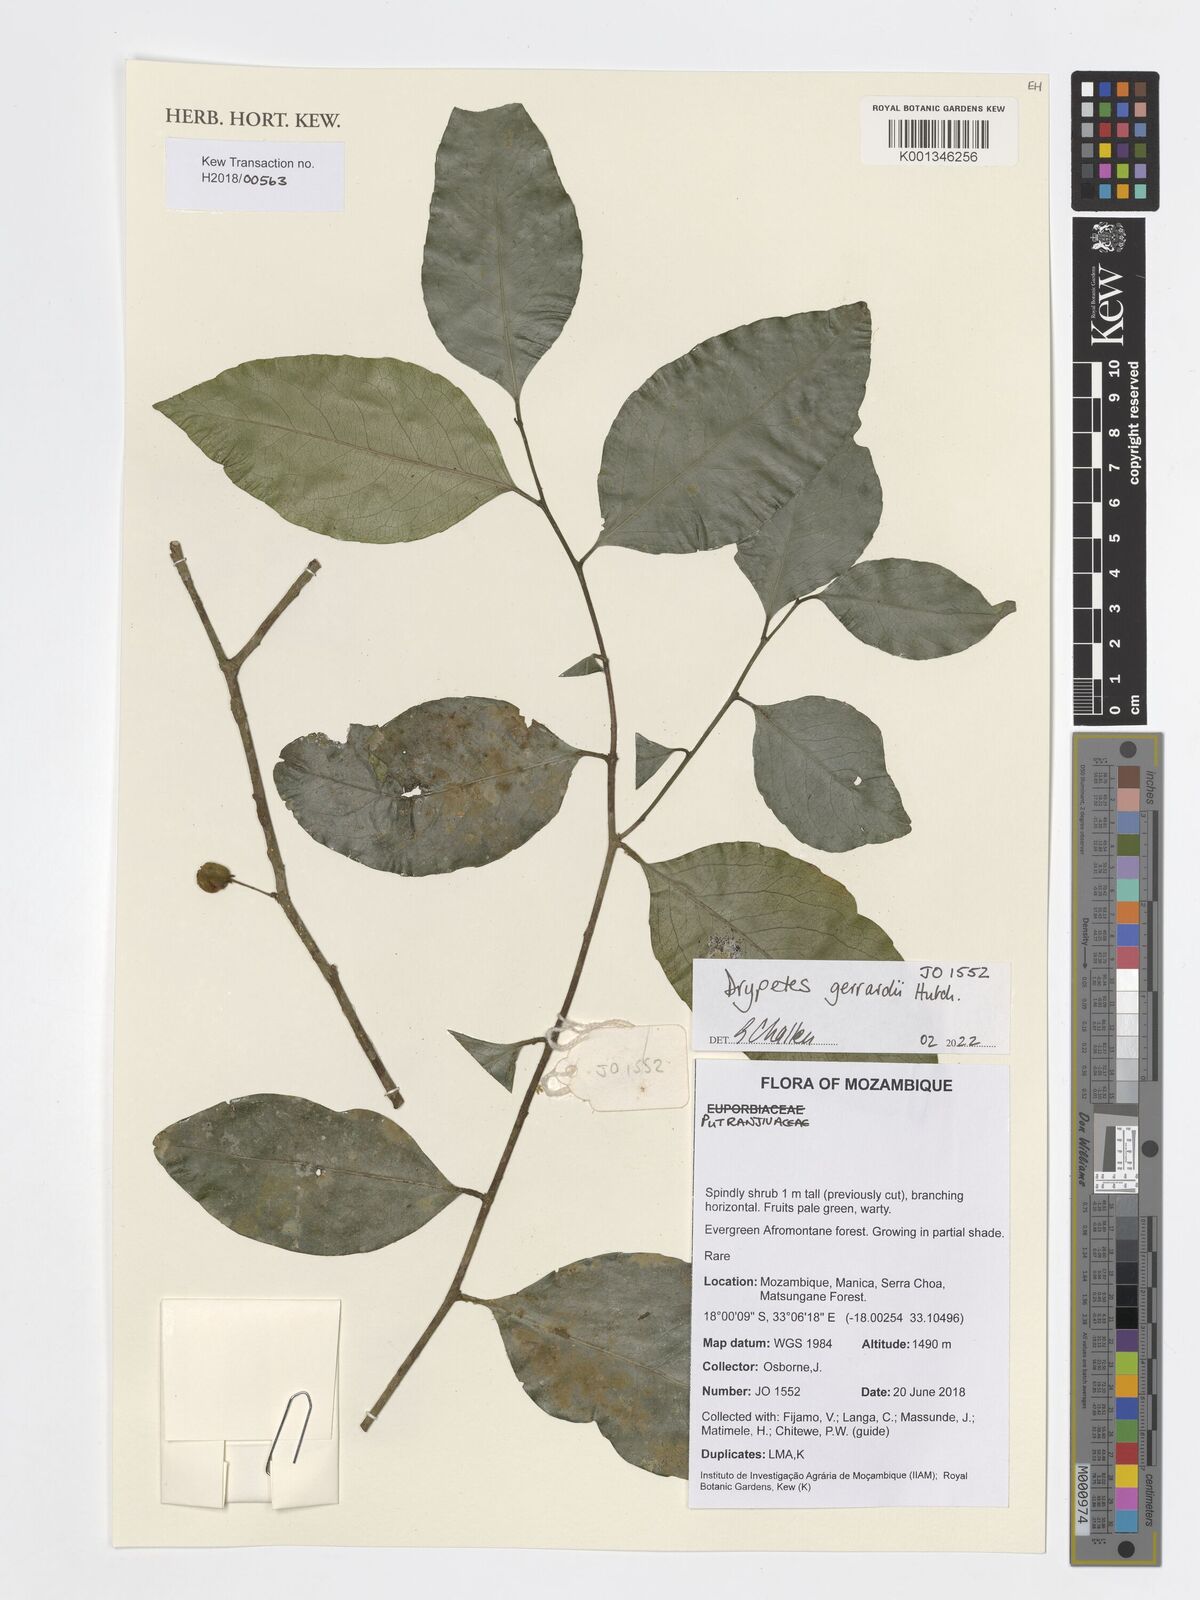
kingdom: Plantae
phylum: Tracheophyta
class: Magnoliopsida
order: Celastrales
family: Celastraceae
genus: Gymnosporia
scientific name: Gymnosporia chasei
